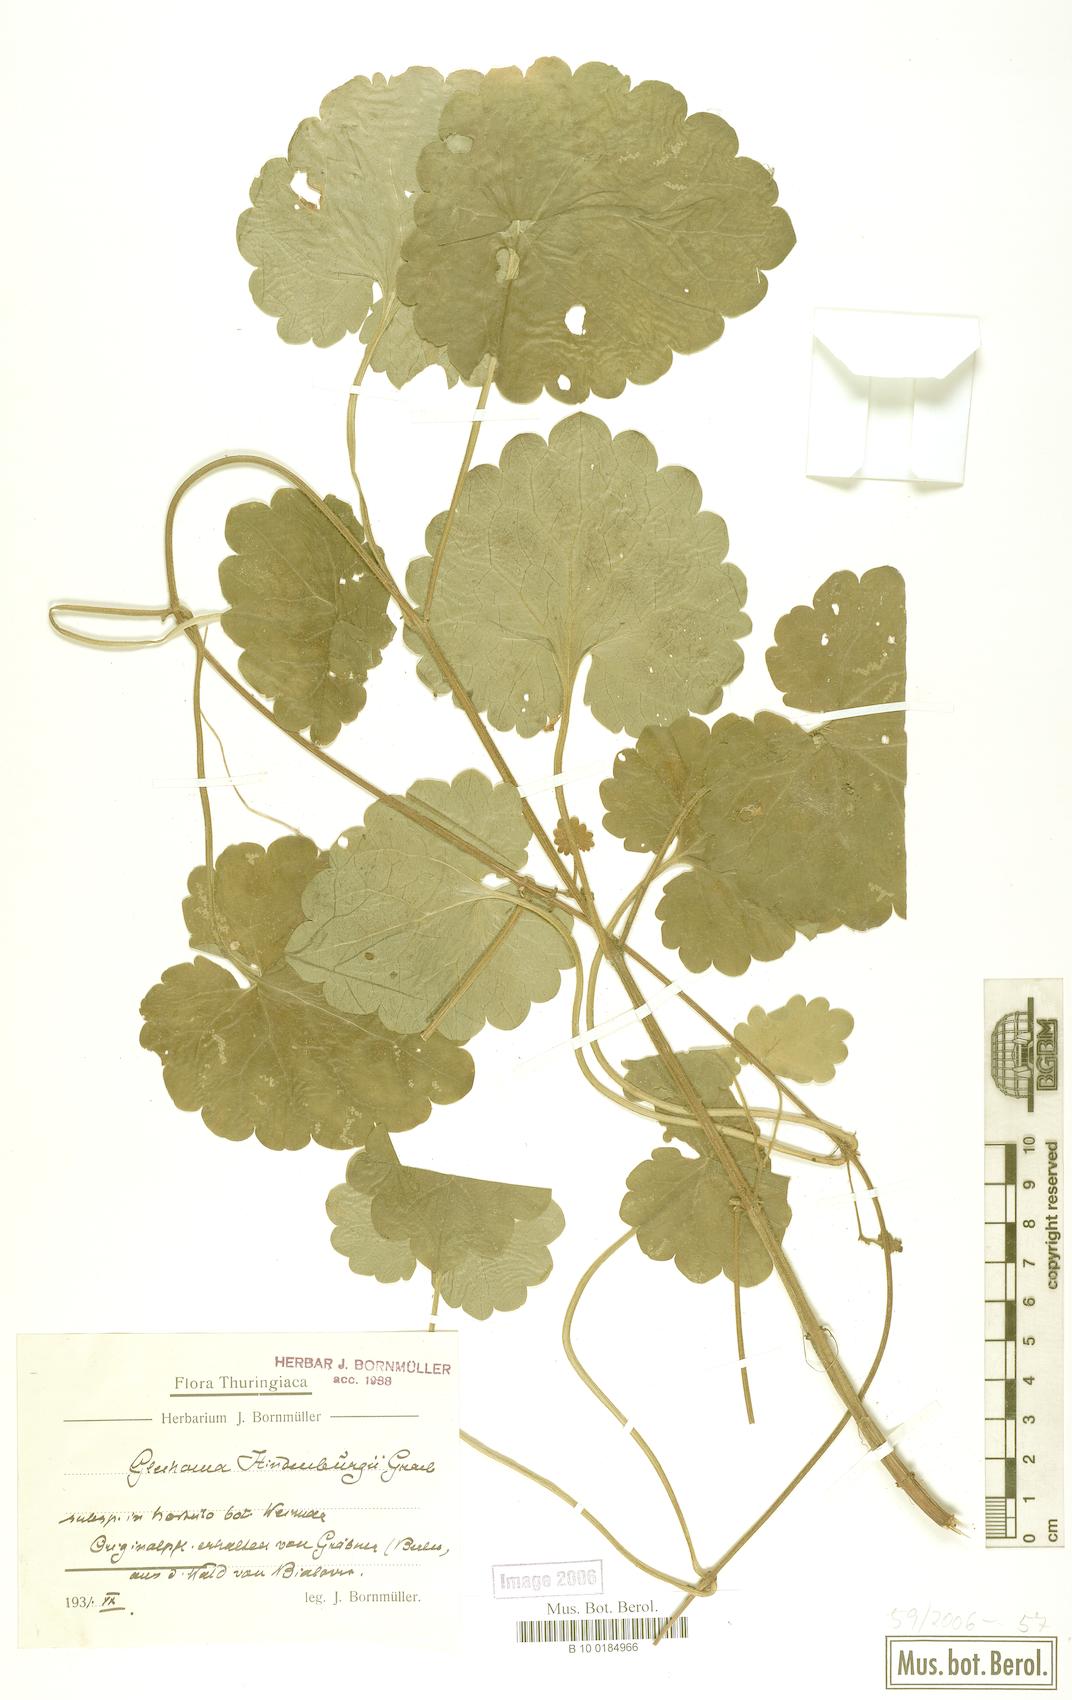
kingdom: Plantae
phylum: Tracheophyta
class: Magnoliopsida
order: Lamiales
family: Lamiaceae
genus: Glechoma
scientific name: Glechoma pannonica
